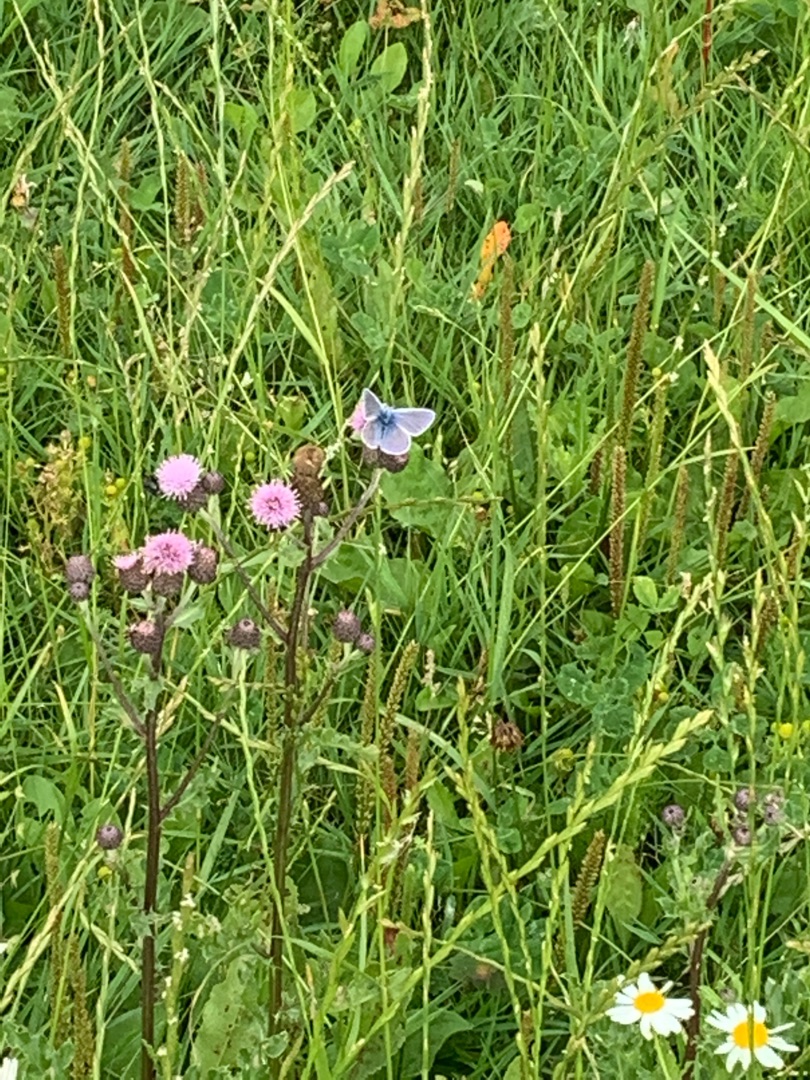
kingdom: Animalia
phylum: Arthropoda
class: Insecta
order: Lepidoptera
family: Lycaenidae
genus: Polyommatus
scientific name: Polyommatus icarus
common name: Almindelig blåfugl
